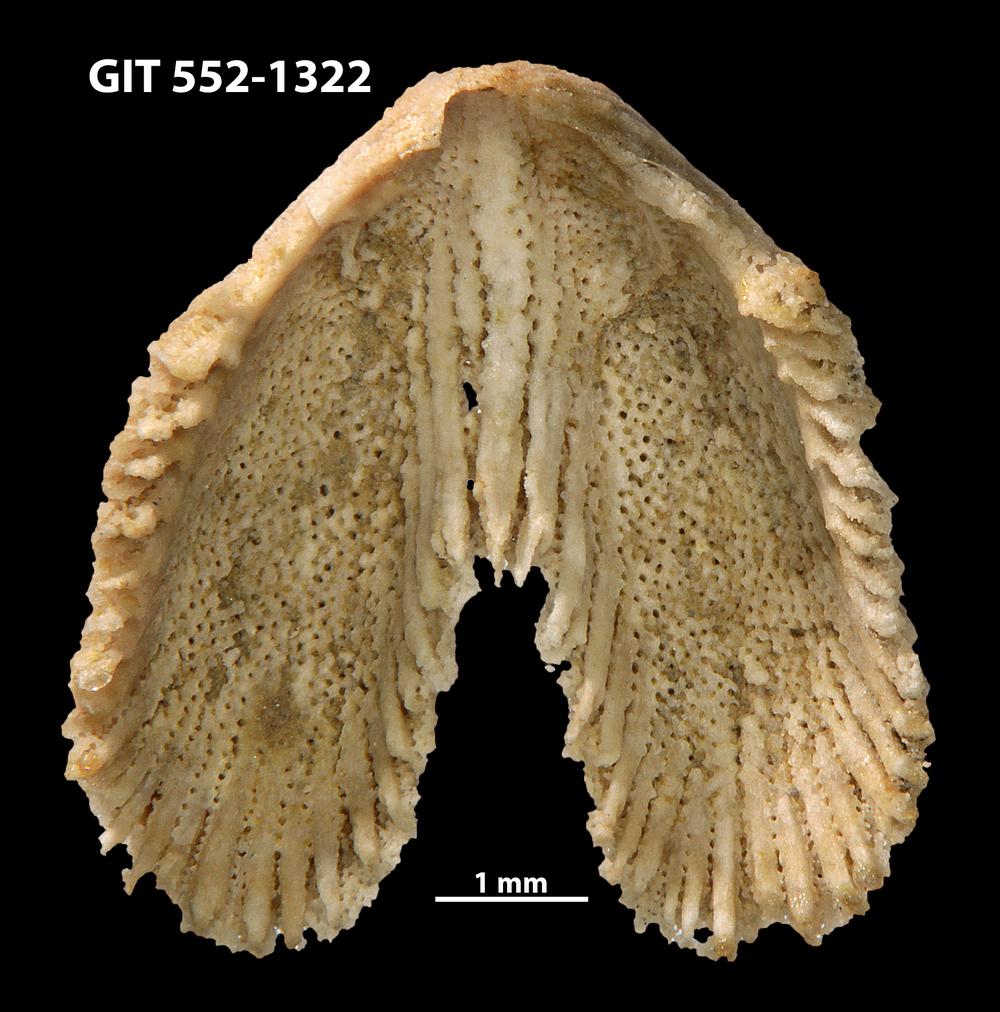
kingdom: Animalia
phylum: Brachiopoda
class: Rhynchonellata
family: Dicoelosiidae
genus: Dicoelosia
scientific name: Dicoelosia paralata
